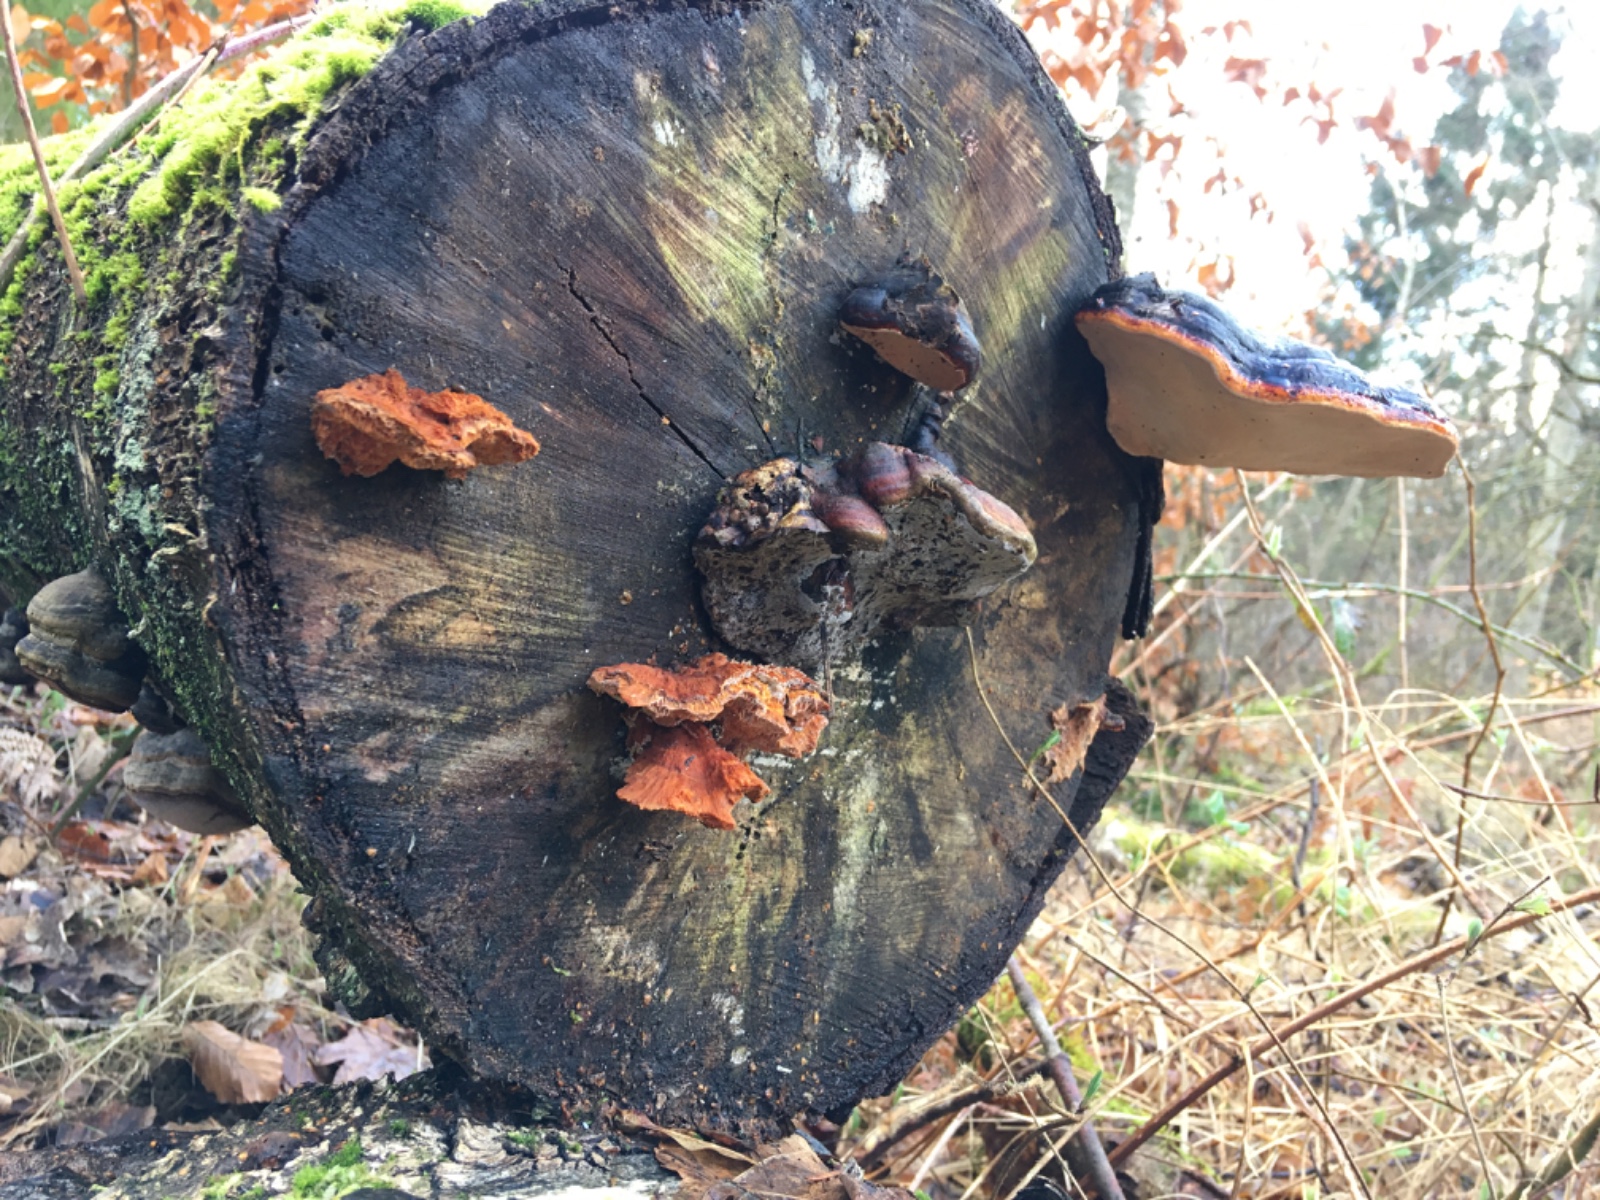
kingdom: Fungi
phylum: Basidiomycota
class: Agaricomycetes
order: Polyporales
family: Pycnoporellaceae
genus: Pycnoporellus
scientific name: Pycnoporellus fulgens
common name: flammeporesvamp
